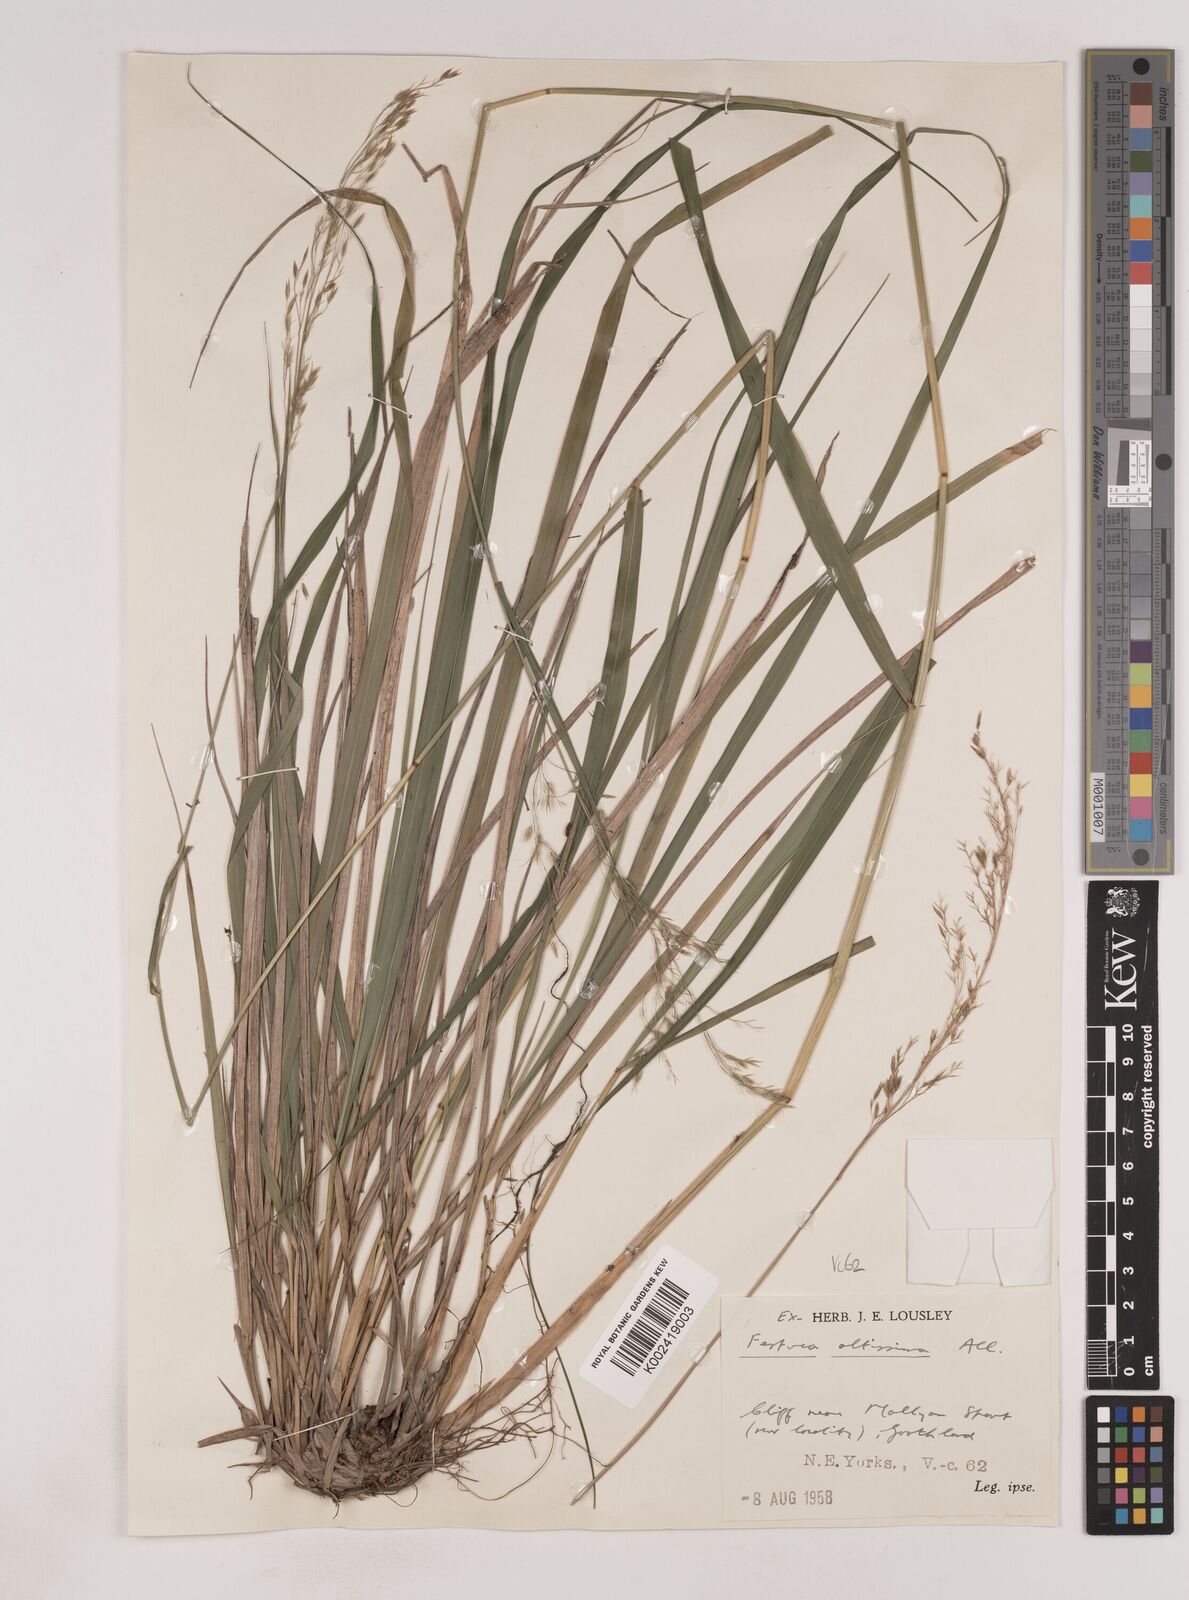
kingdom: Plantae
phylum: Tracheophyta
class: Liliopsida
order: Poales
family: Poaceae
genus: Festuca
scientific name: Festuca drymeja
